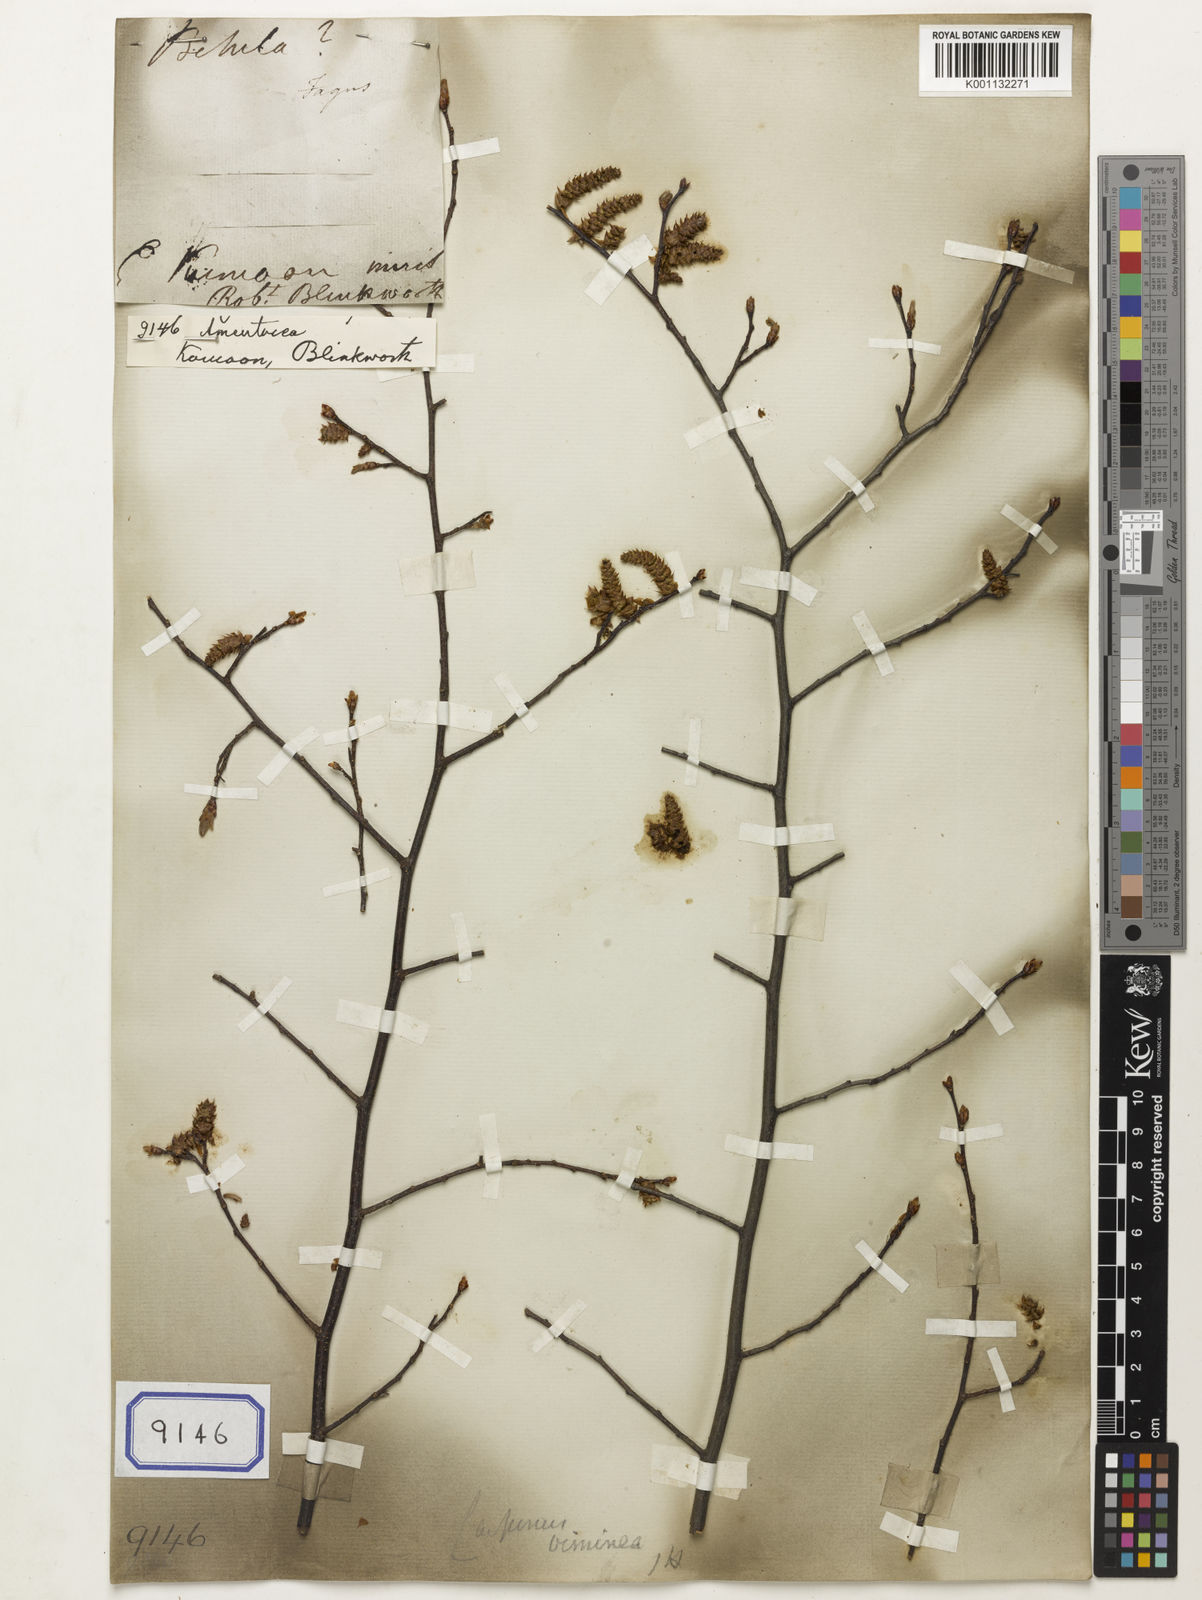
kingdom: Plantae
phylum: Tracheophyta
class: Magnoliopsida
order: Caryophyllales
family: Amaranthaceae
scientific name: Amaranthaceae
